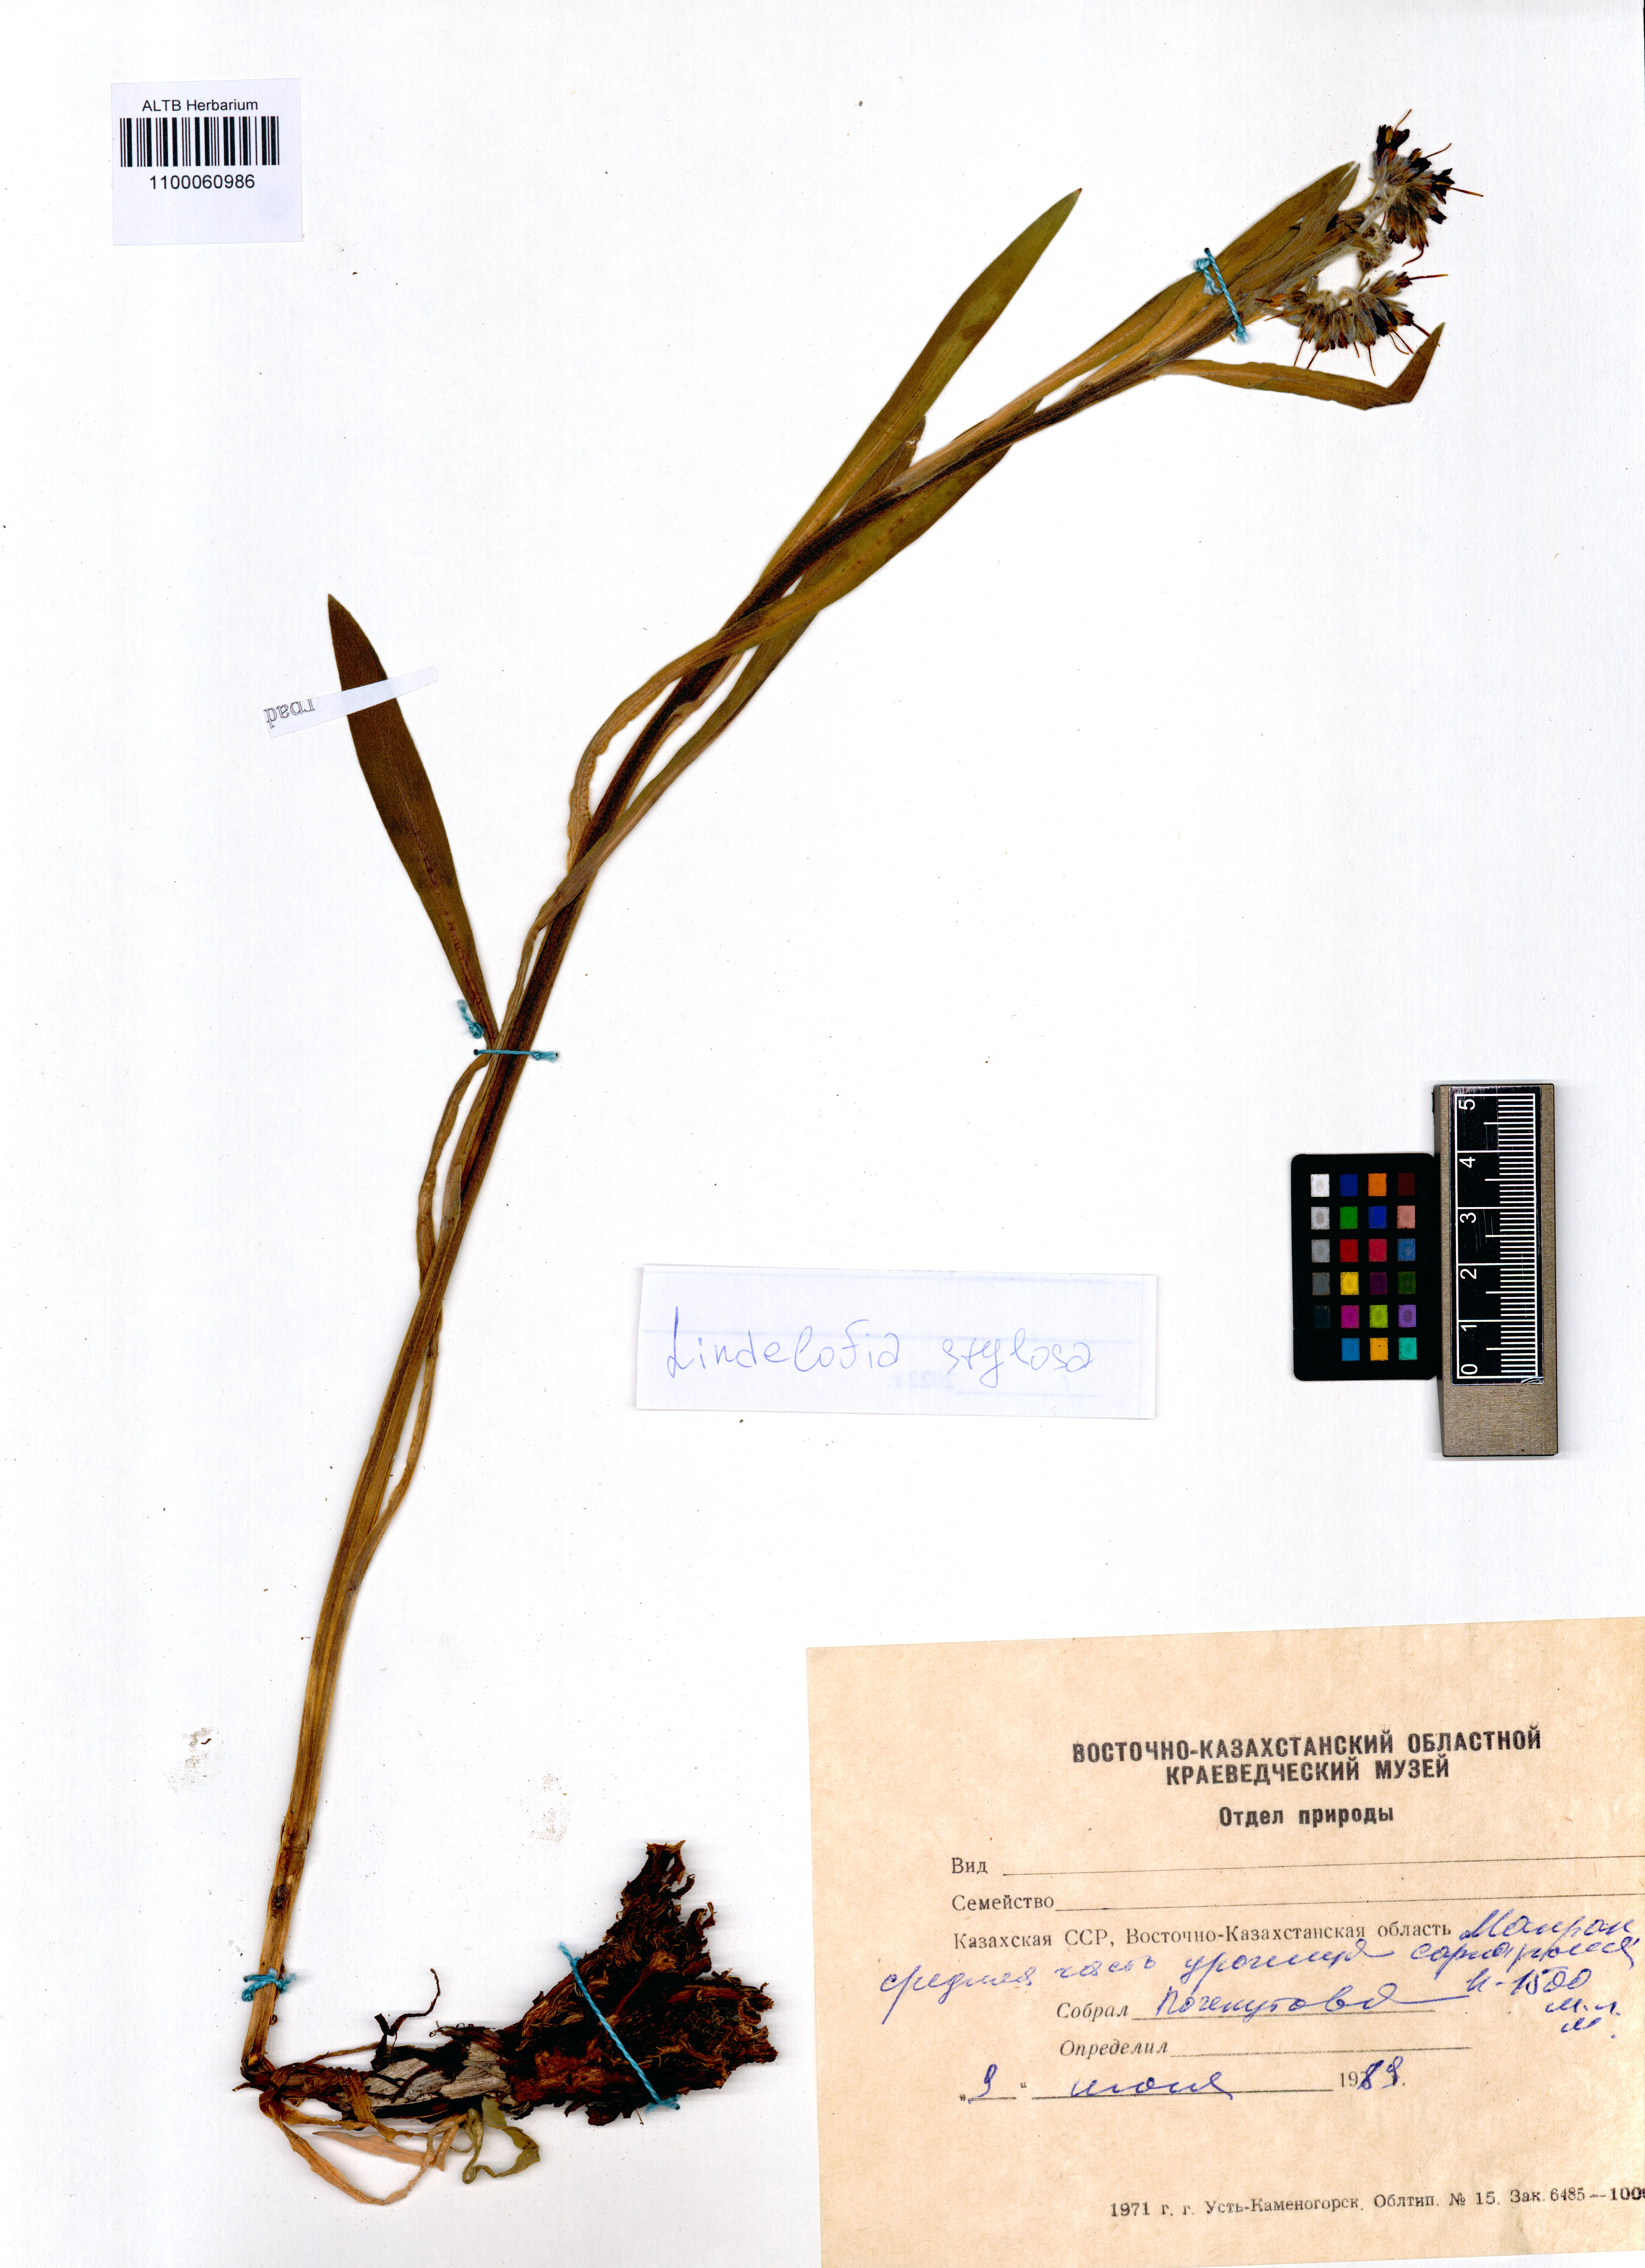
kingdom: Plantae
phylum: Tracheophyta
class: Magnoliopsida
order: Boraginales
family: Boraginaceae
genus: Lindelofia
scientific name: Lindelofia stylosa
